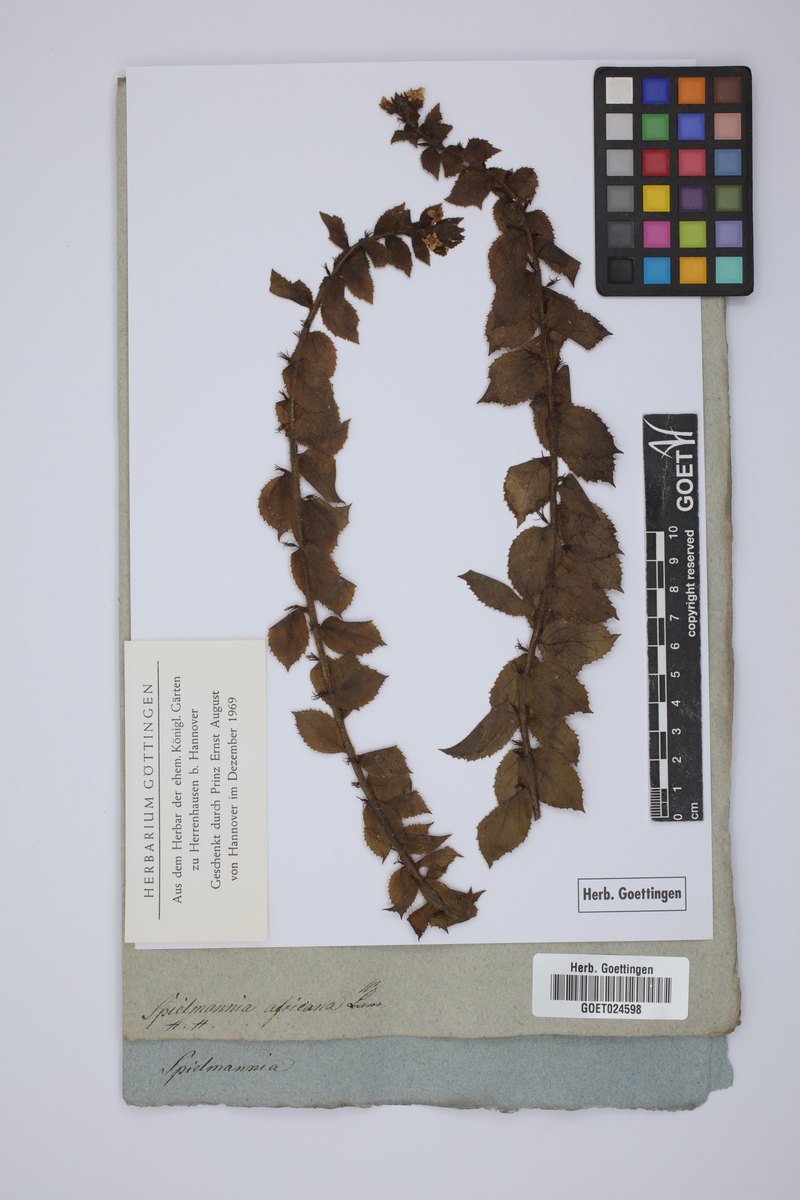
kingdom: Plantae
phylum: Tracheophyta
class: Magnoliopsida
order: Lamiales
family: Scrophulariaceae
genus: Oftia
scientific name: Oftia africana
